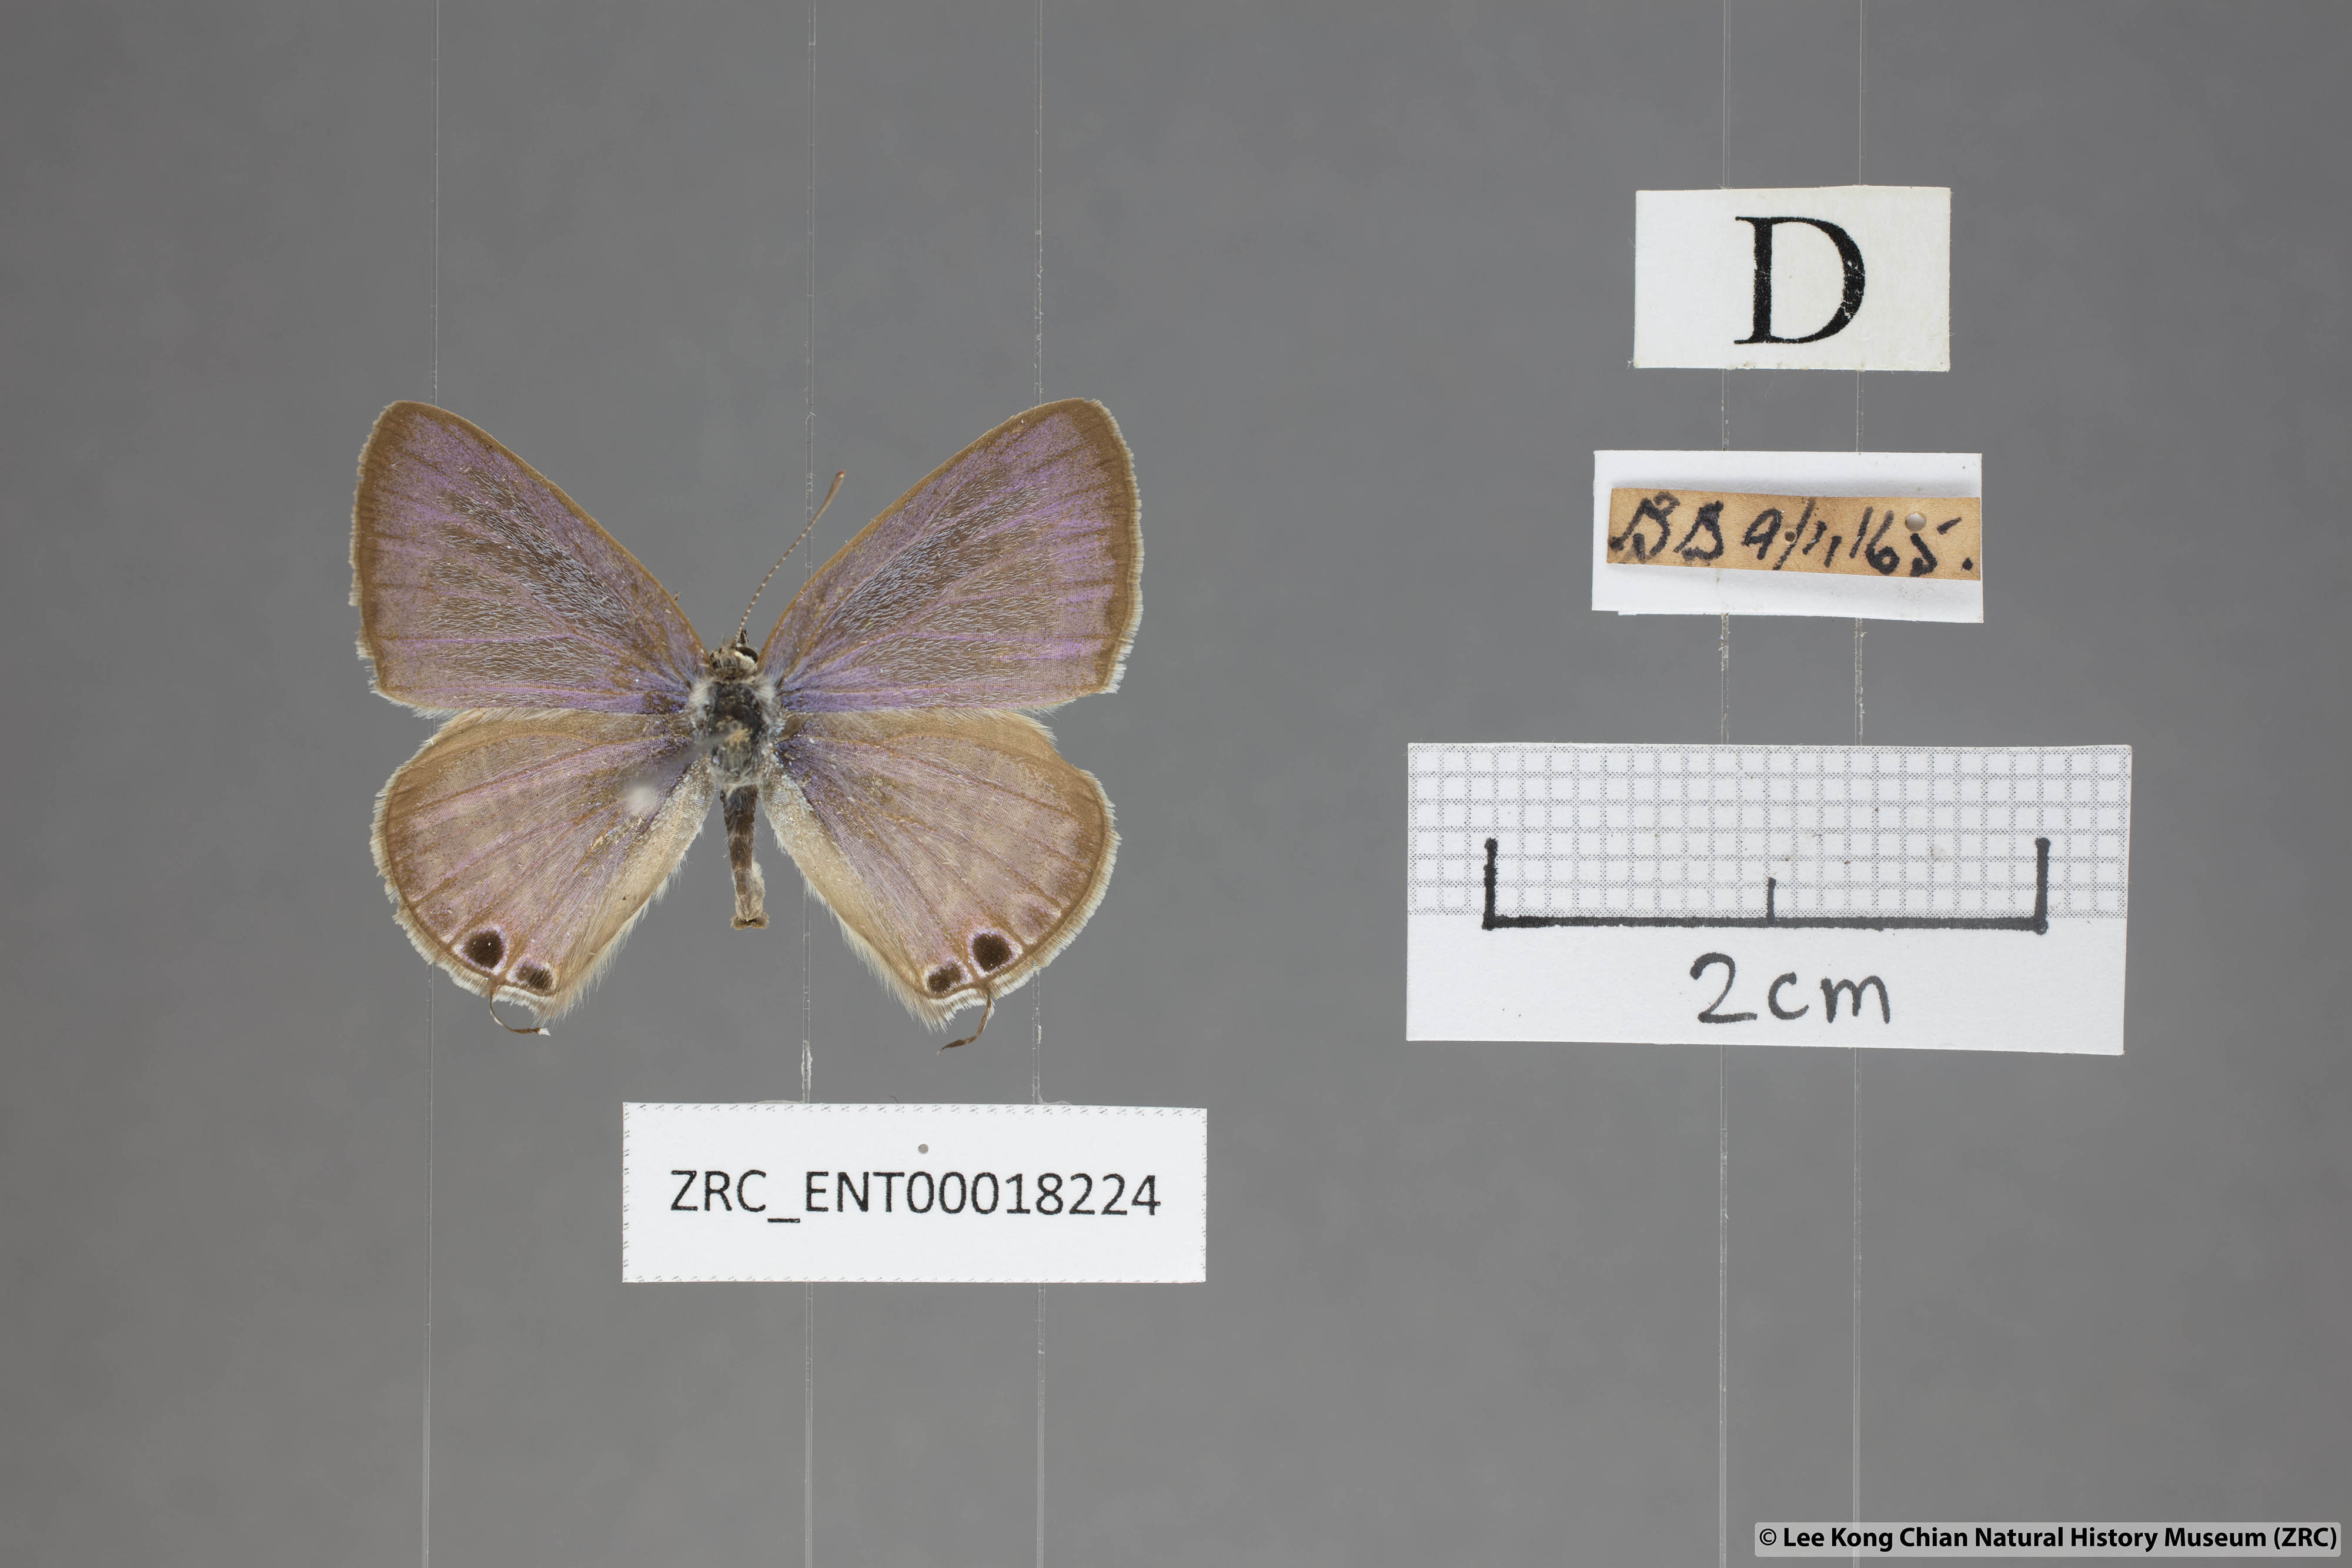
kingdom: Animalia
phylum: Arthropoda
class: Insecta
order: Lepidoptera
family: Lycaenidae
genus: Lampides
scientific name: Lampides boeticus
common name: Long-tailed blue
